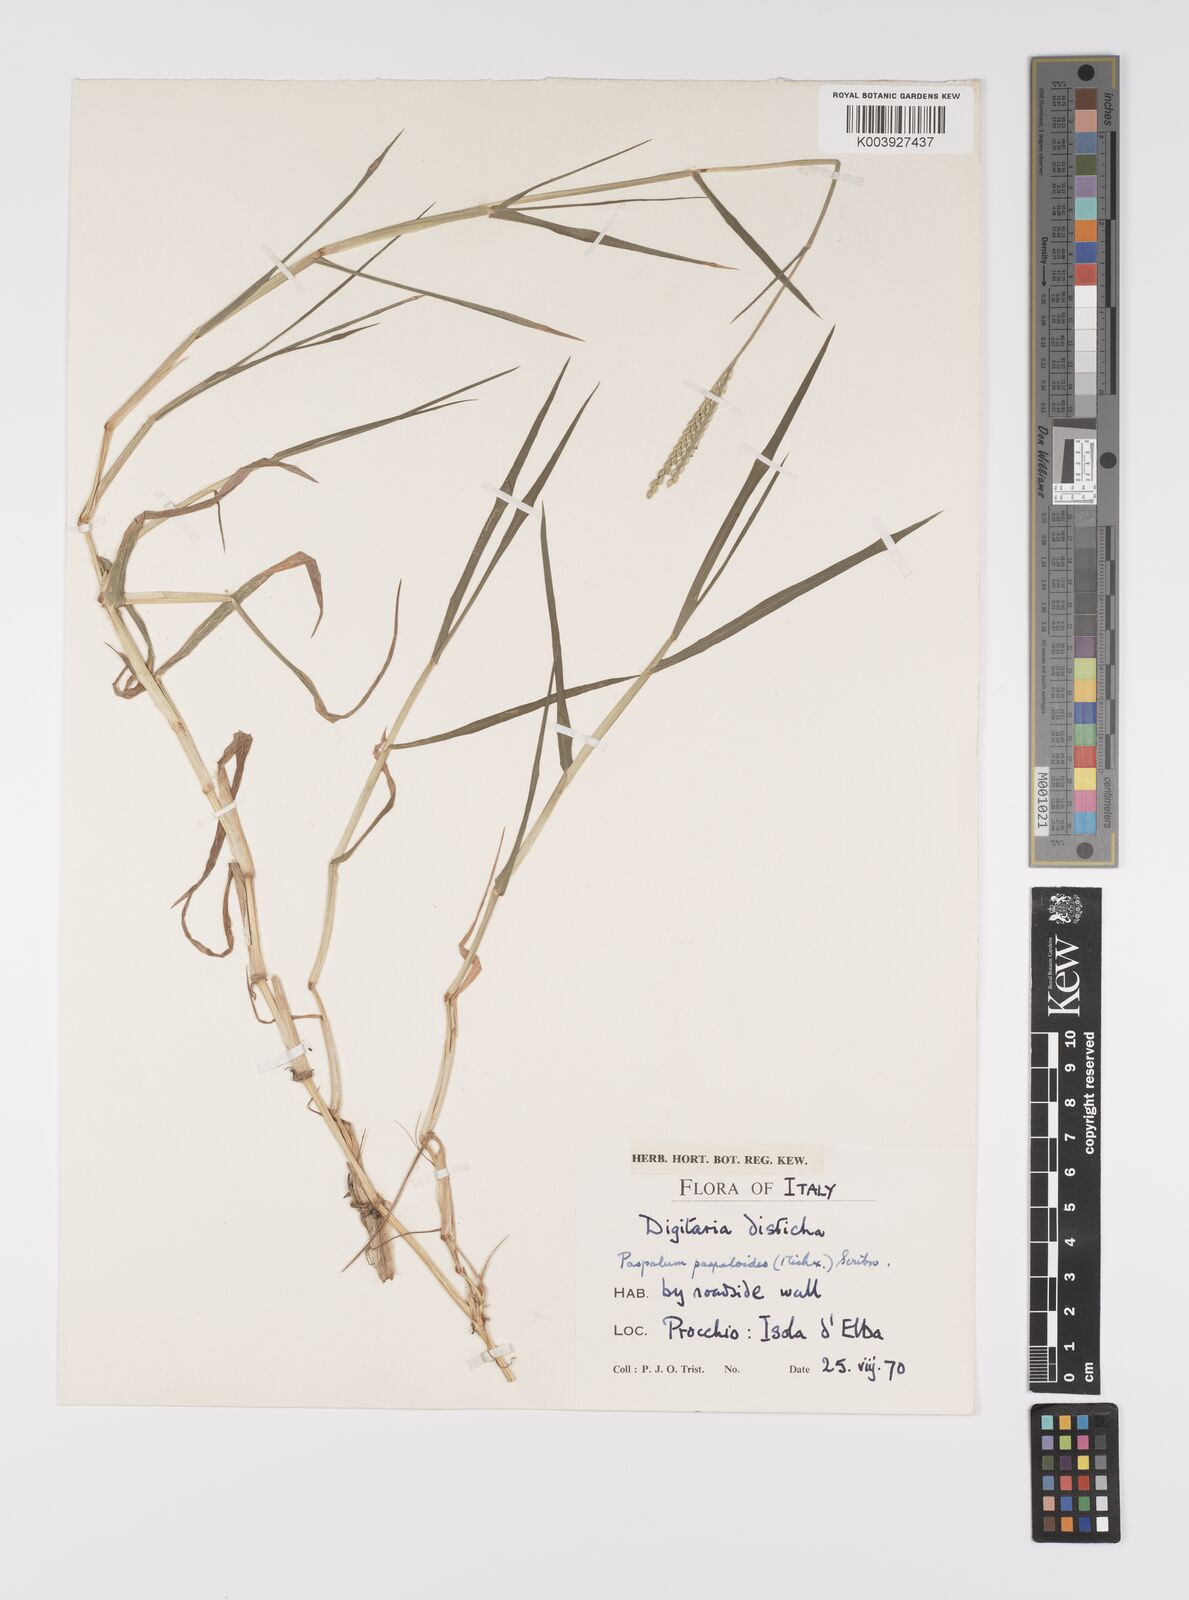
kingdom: Plantae
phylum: Tracheophyta
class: Liliopsida
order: Poales
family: Poaceae
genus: Paspalum
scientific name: Paspalum distichum
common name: Knotgrass
